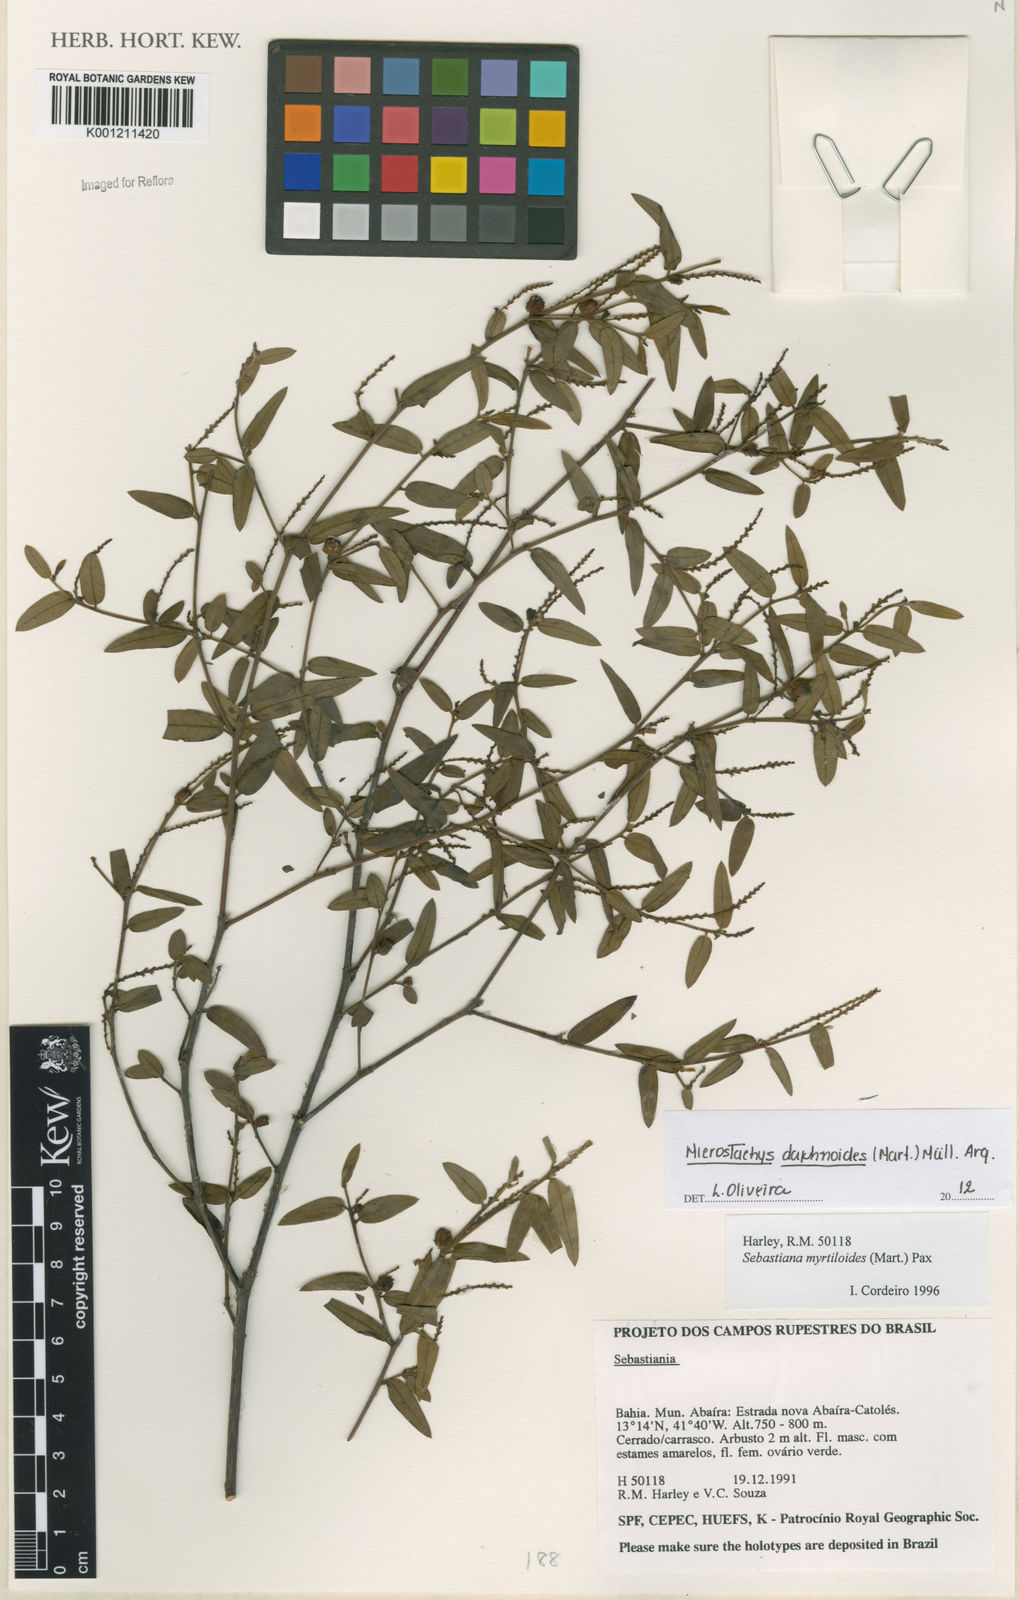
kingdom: Plantae
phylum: Tracheophyta
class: Magnoliopsida
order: Malpighiales
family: Euphorbiaceae
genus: Microstachys
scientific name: Microstachys
